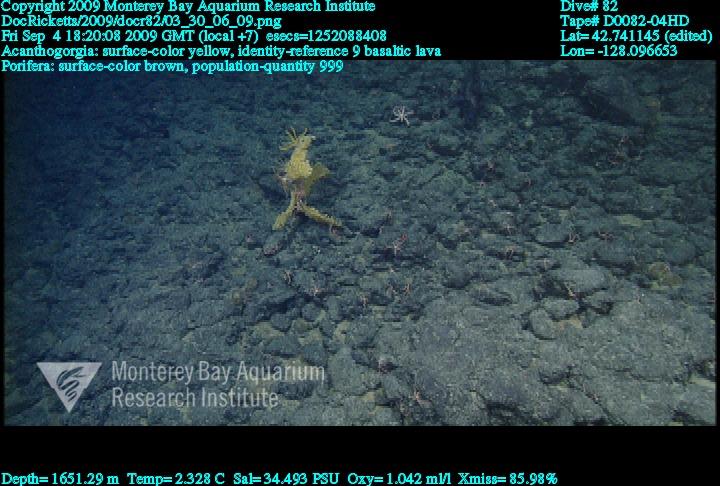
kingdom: Animalia
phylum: Porifera
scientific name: Porifera
